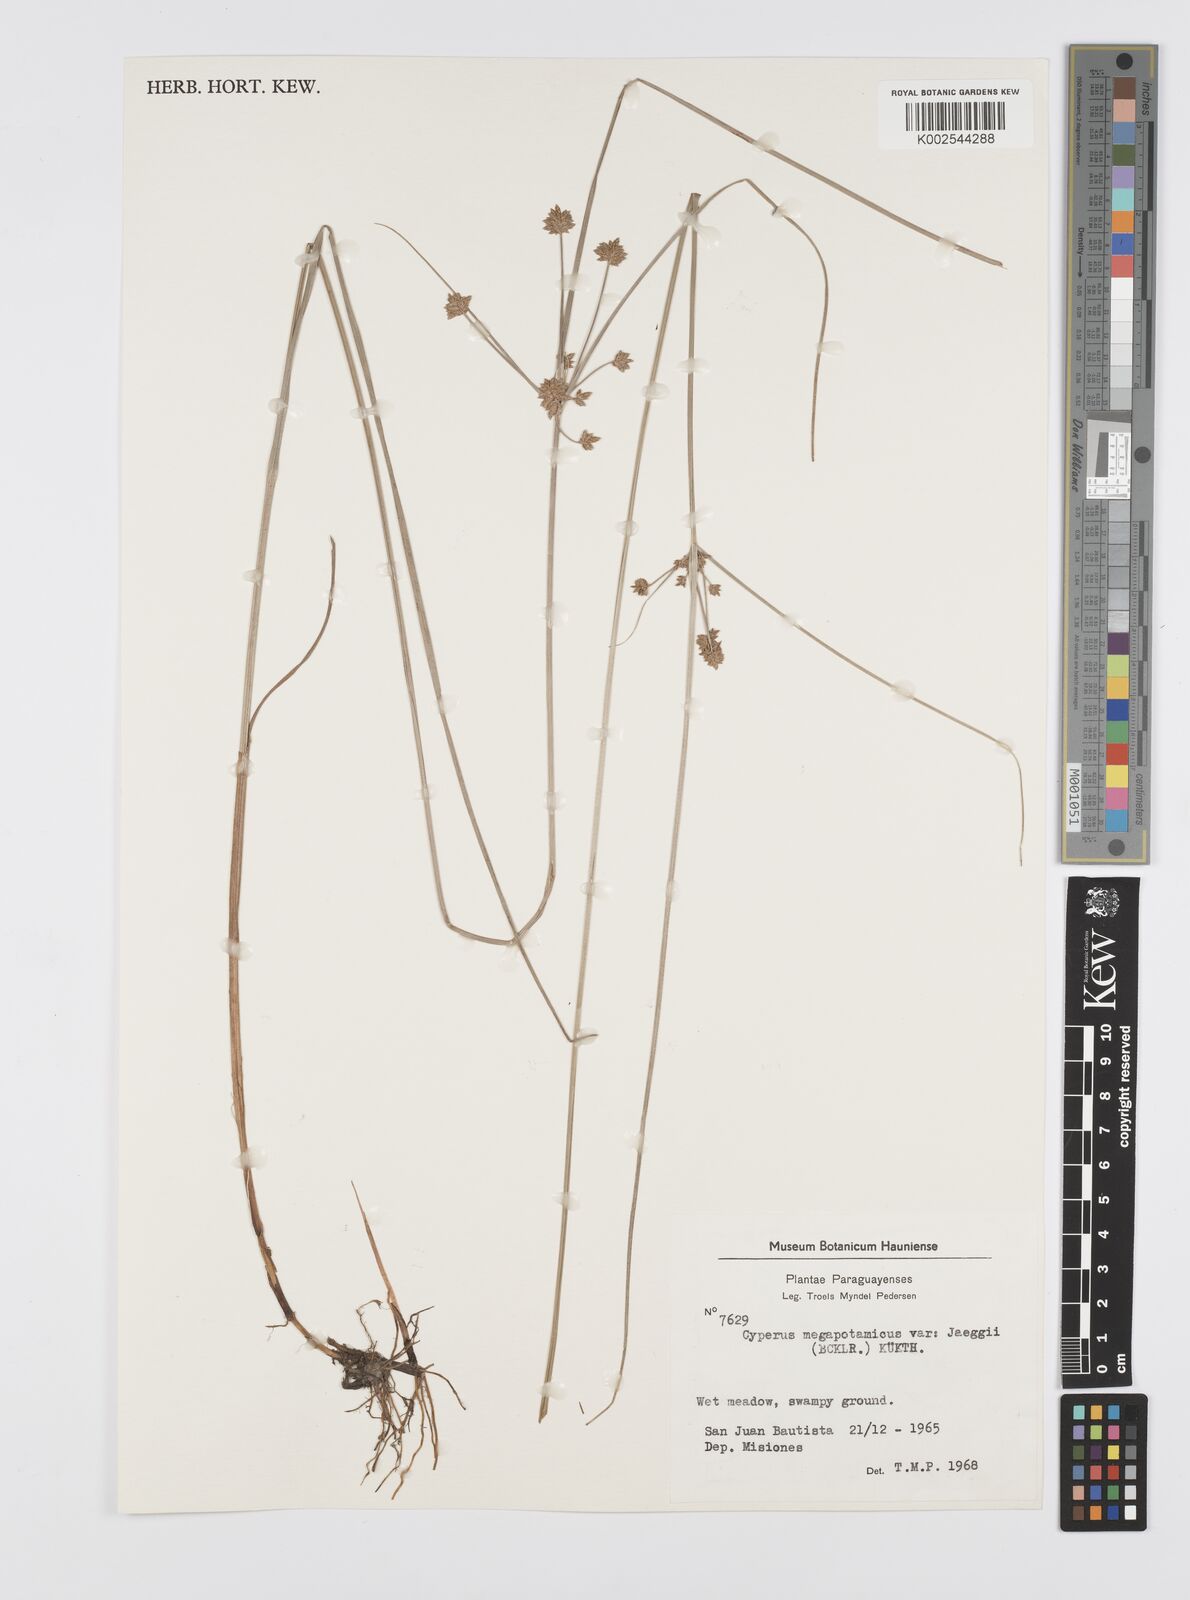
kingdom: Plantae
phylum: Tracheophyta
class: Liliopsida
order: Poales
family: Cyperaceae
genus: Cyperus
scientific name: Cyperus megapotamicus
